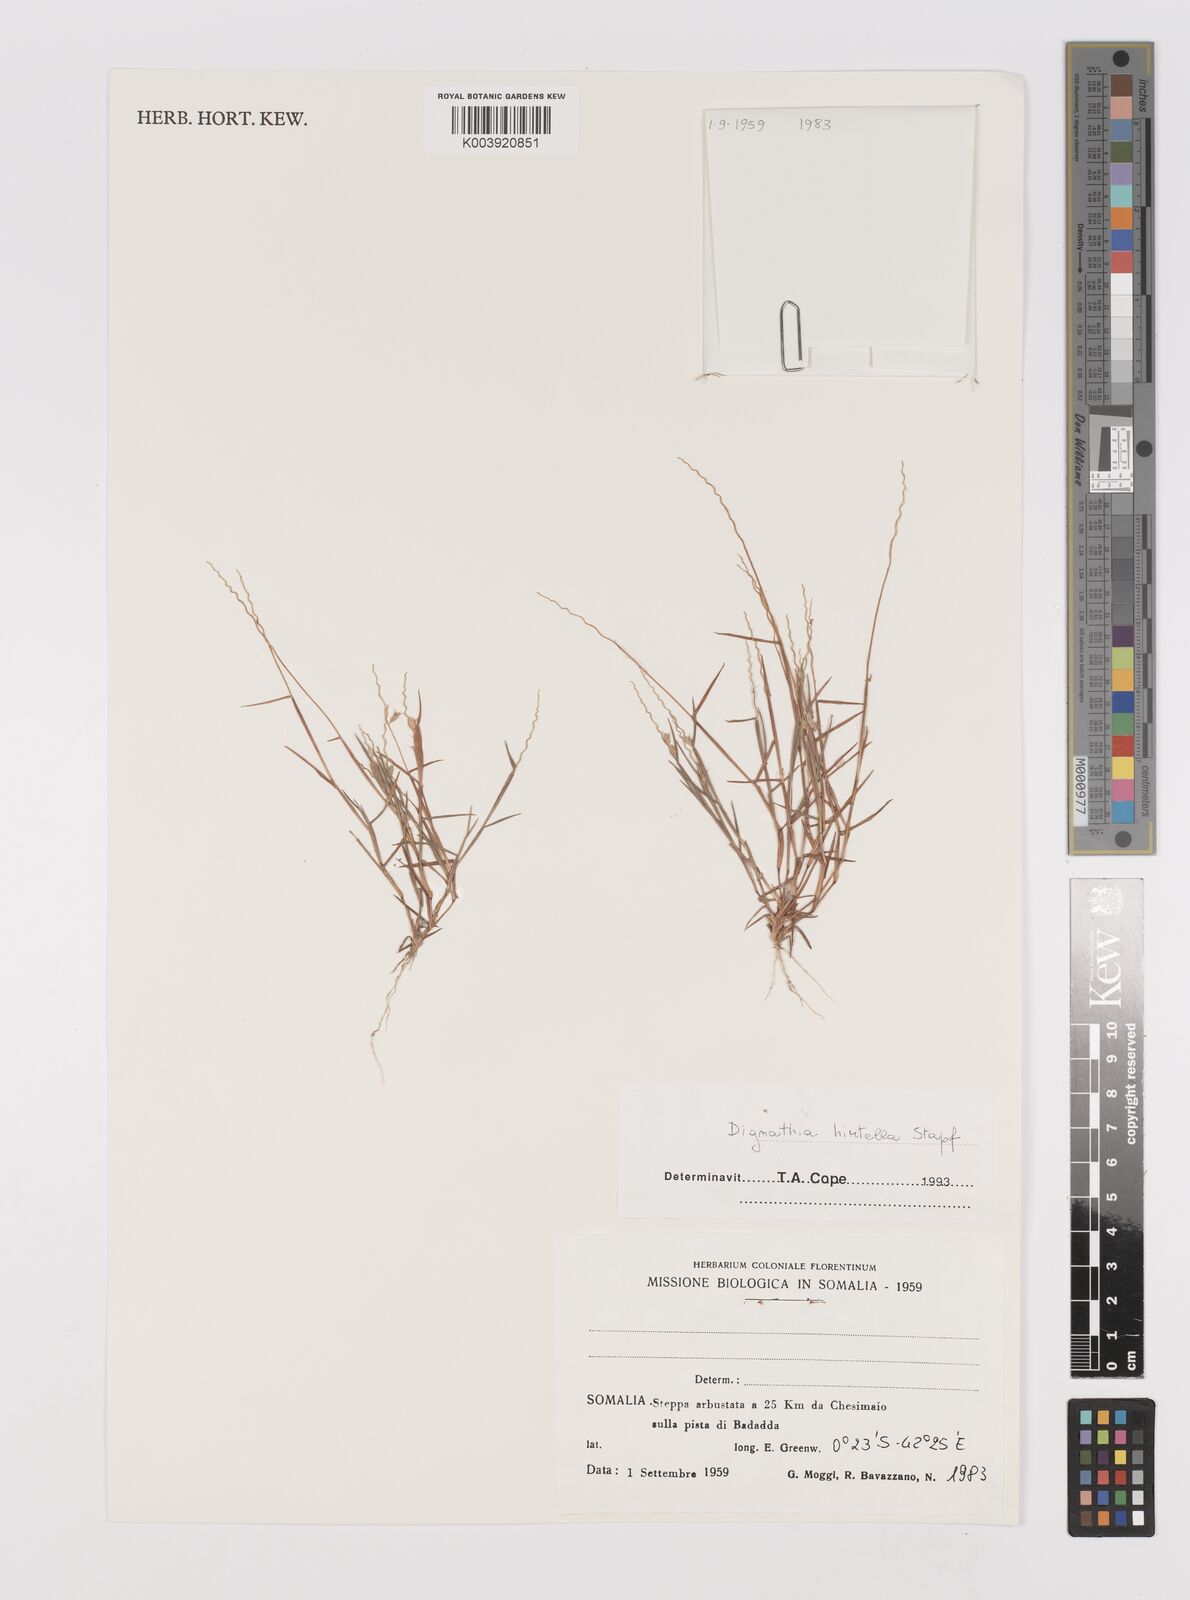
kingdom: Plantae
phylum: Tracheophyta
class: Liliopsida
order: Poales
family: Poaceae
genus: Dignathia
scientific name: Dignathia hirtella
